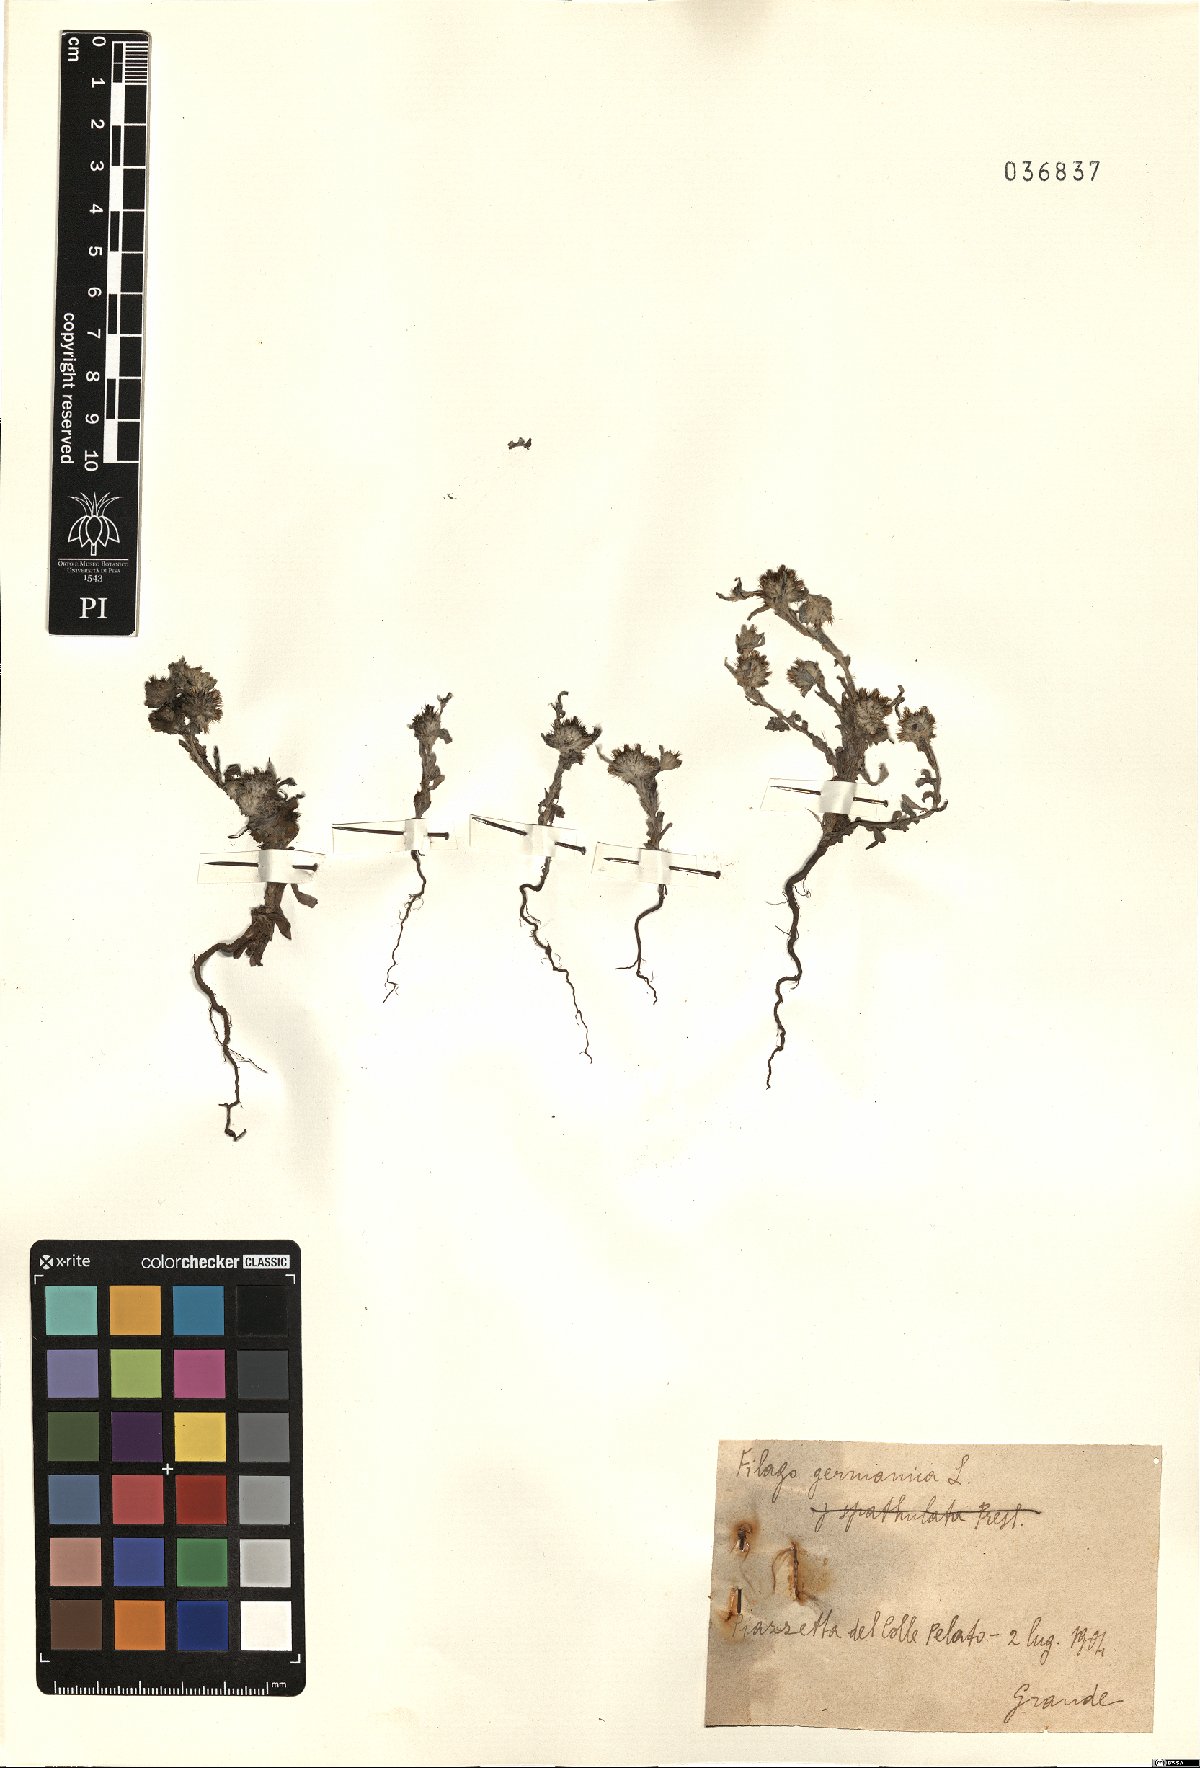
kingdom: Plantae
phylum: Tracheophyta
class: Magnoliopsida
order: Asterales
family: Asteraceae
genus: Filago
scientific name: Filago germanica
